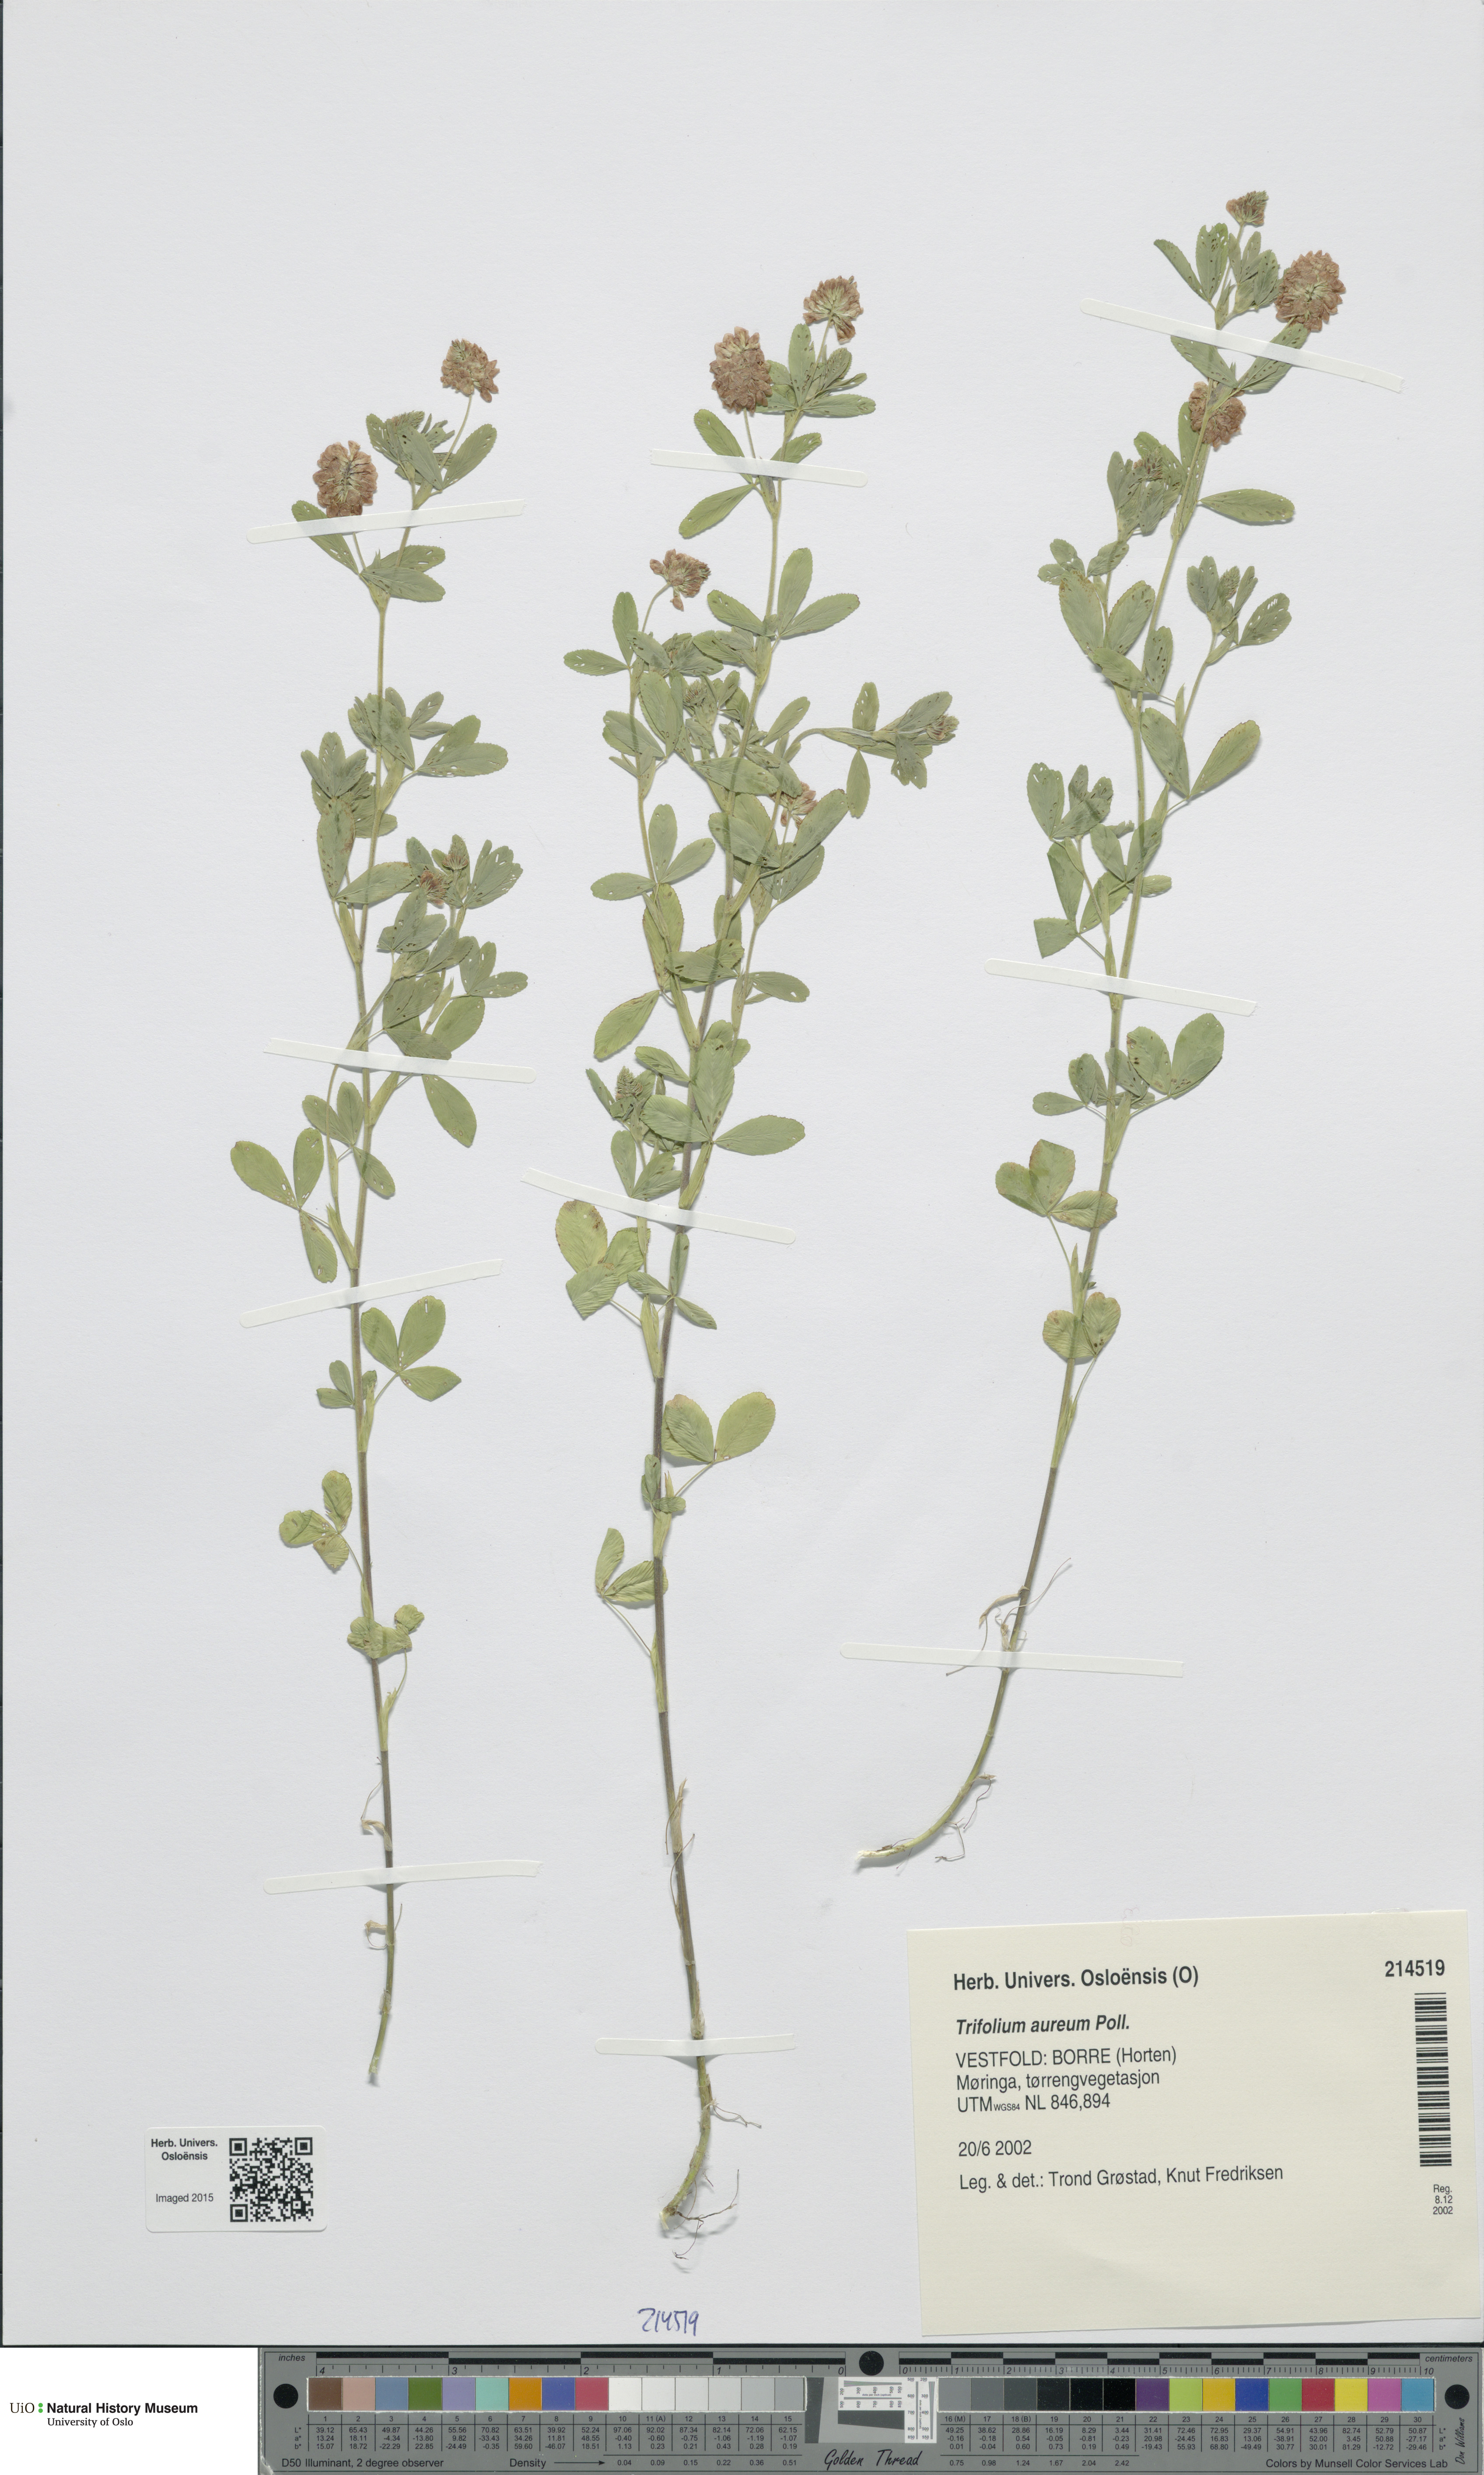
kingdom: Plantae
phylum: Tracheophyta
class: Magnoliopsida
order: Fabales
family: Fabaceae
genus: Trifolium
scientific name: Trifolium aureum
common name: Golden clover
